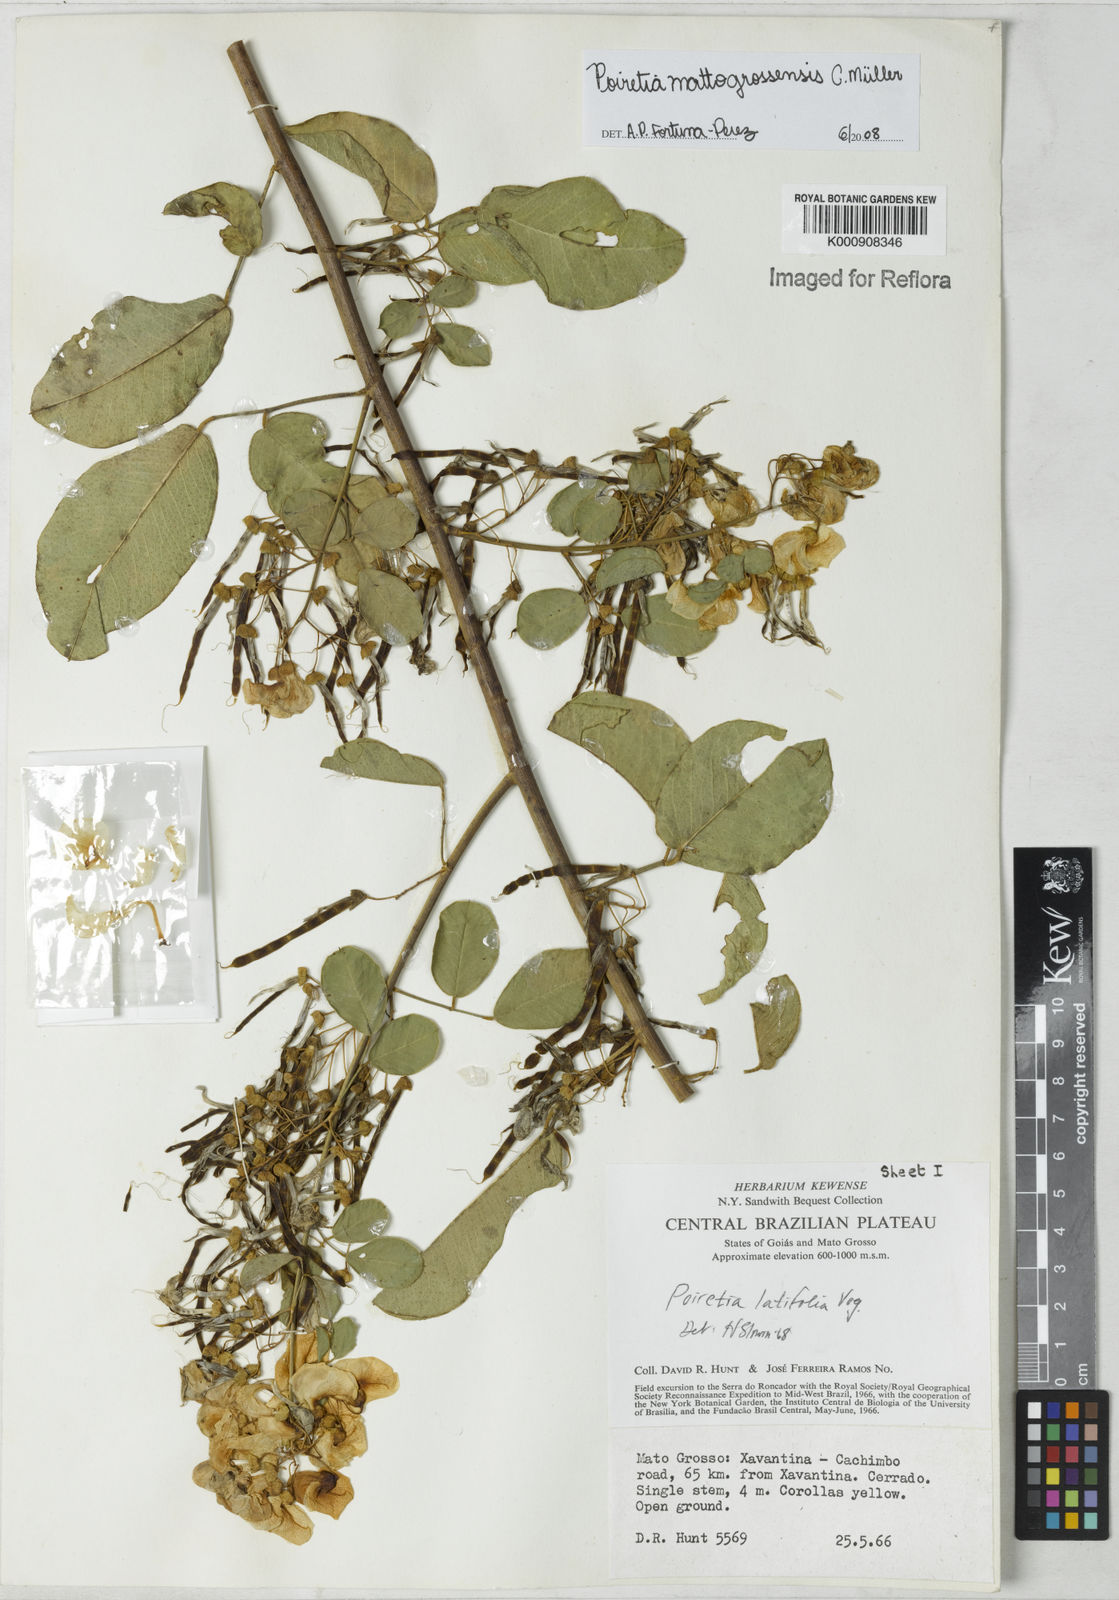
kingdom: Plantae
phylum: Tracheophyta
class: Magnoliopsida
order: Fabales
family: Fabaceae
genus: Poiretia
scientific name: Poiretia mattogrossensis
